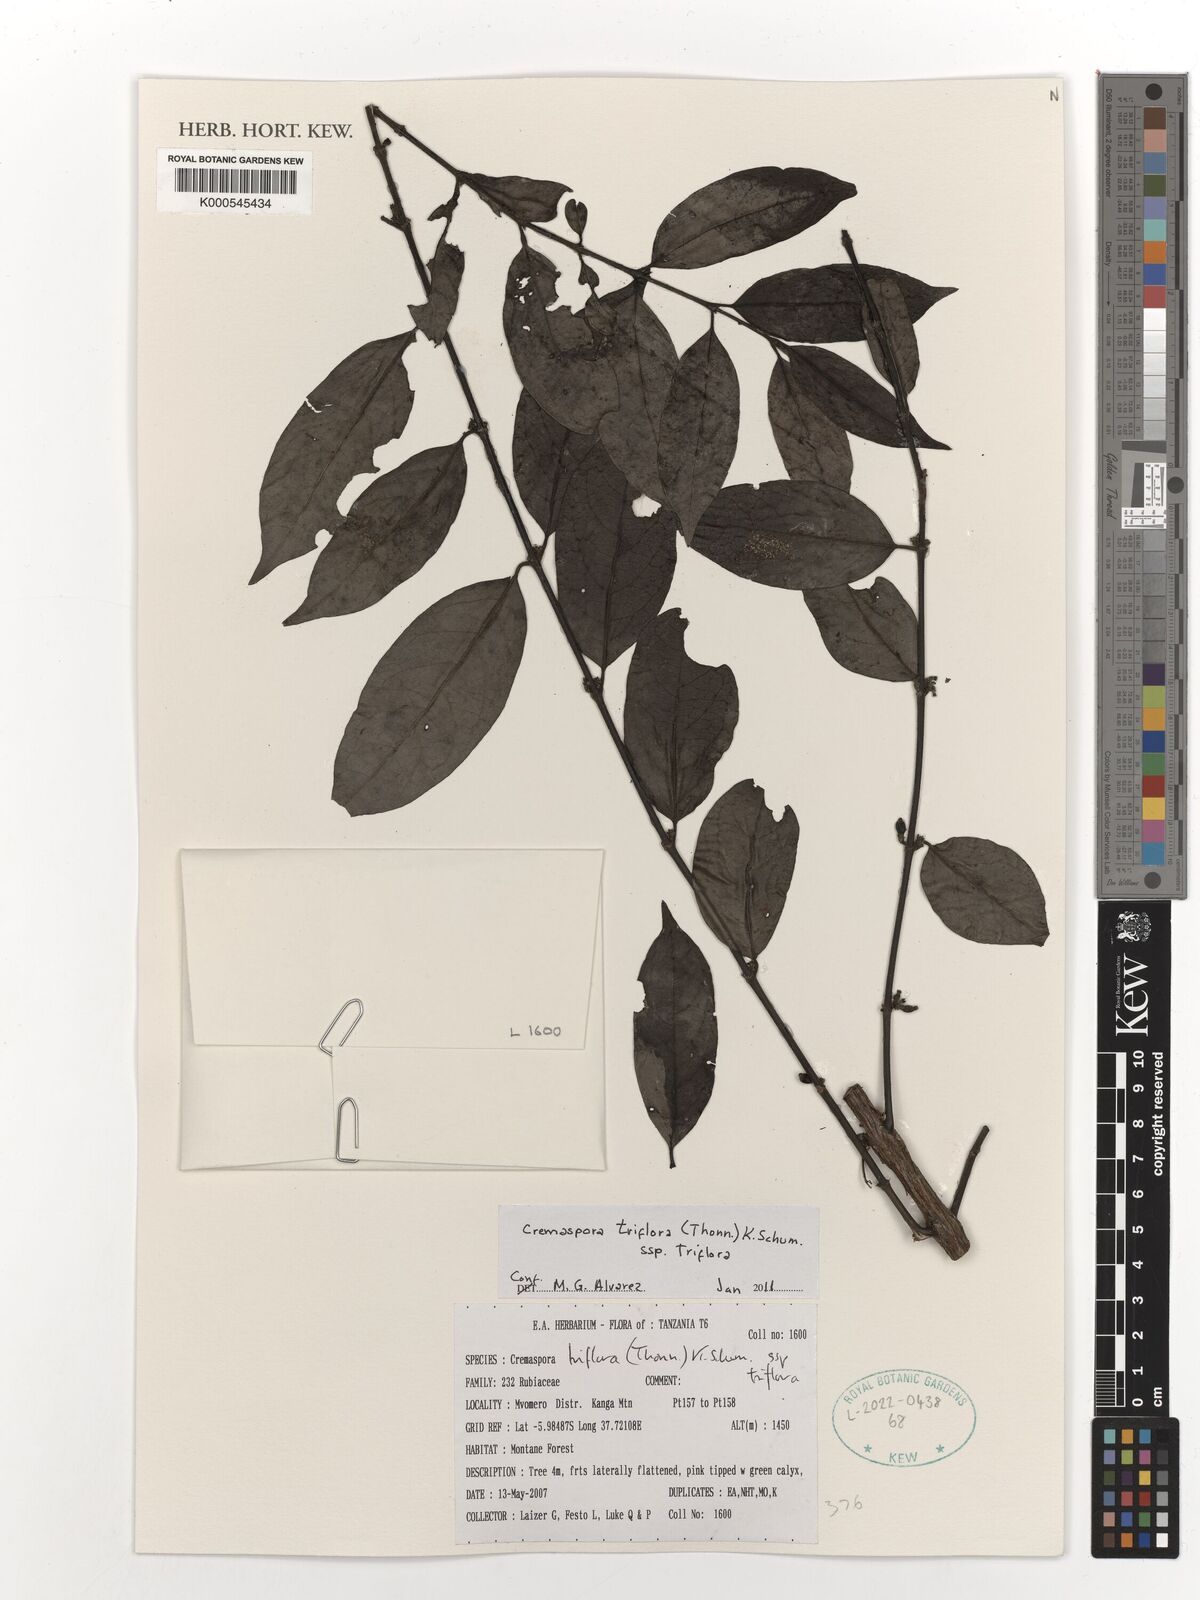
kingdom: Plantae
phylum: Tracheophyta
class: Magnoliopsida
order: Gentianales
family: Rubiaceae
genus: Cremaspora
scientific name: Cremaspora triflora
